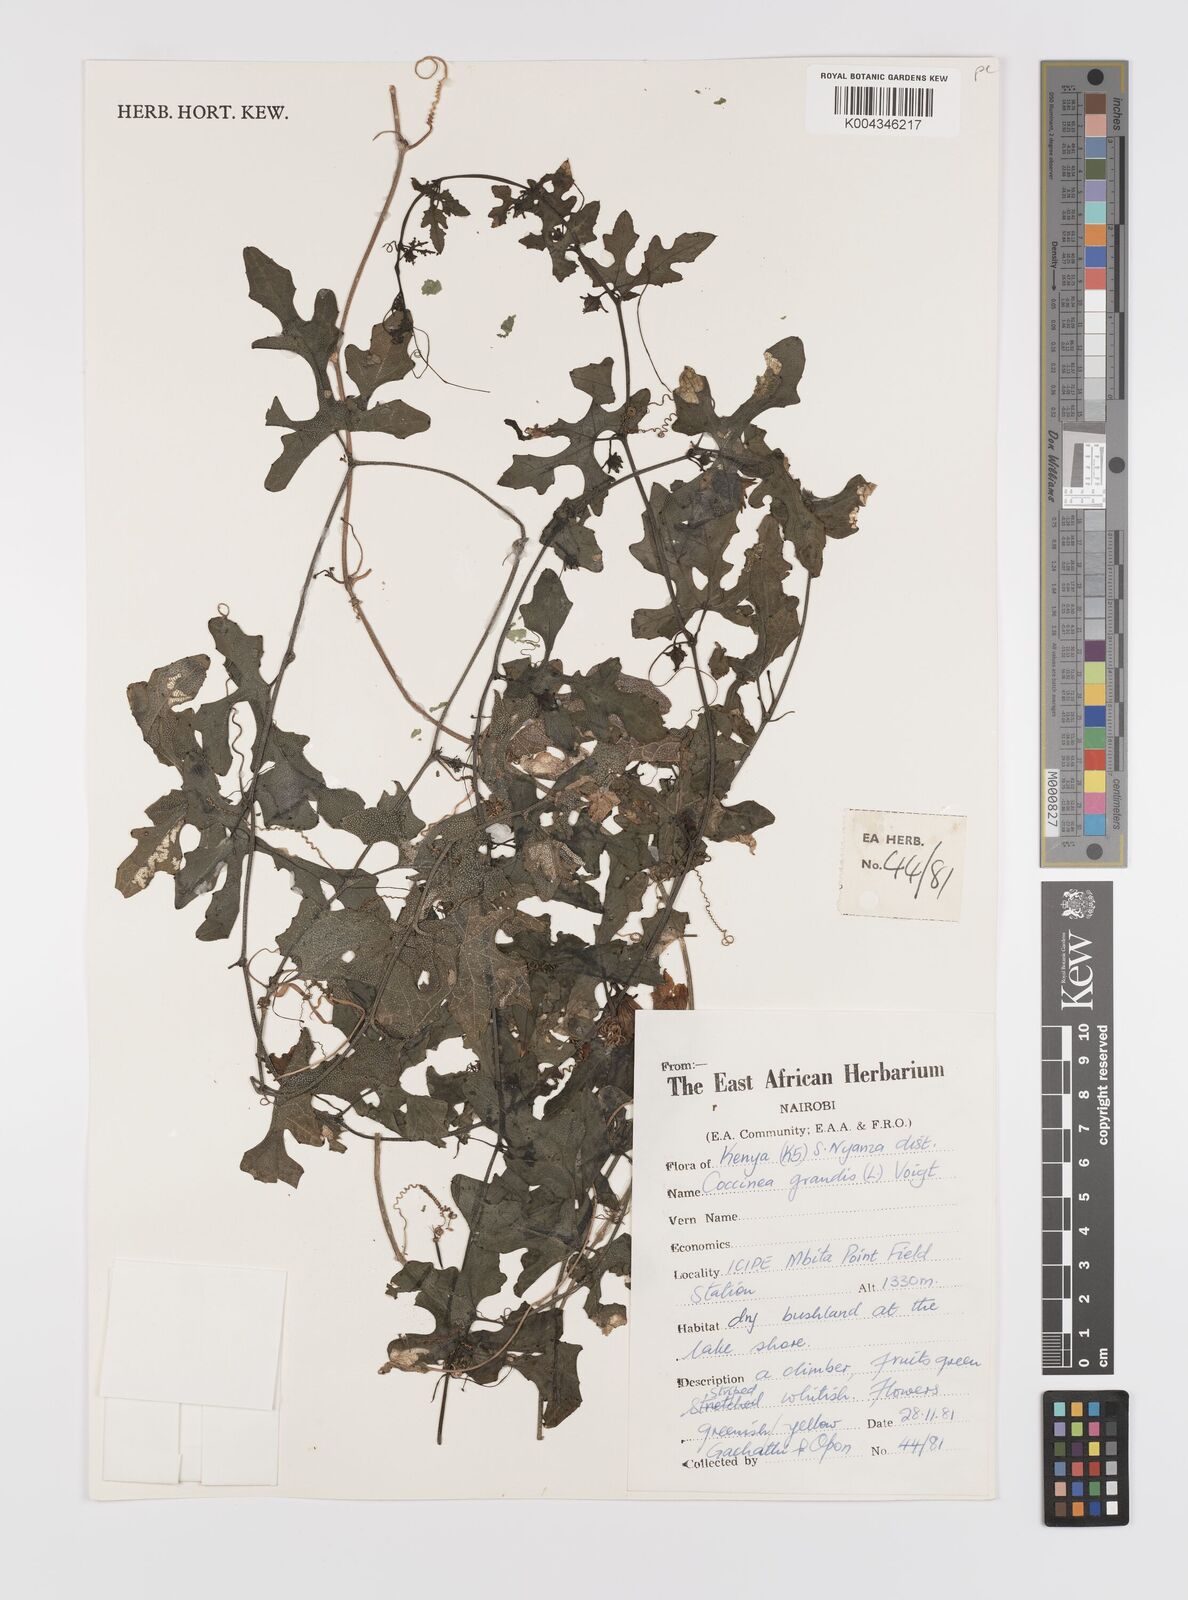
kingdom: Plantae
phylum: Tracheophyta
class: Magnoliopsida
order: Cucurbitales
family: Cucurbitaceae
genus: Coccinia
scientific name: Coccinia grandis
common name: Ivy gourd
